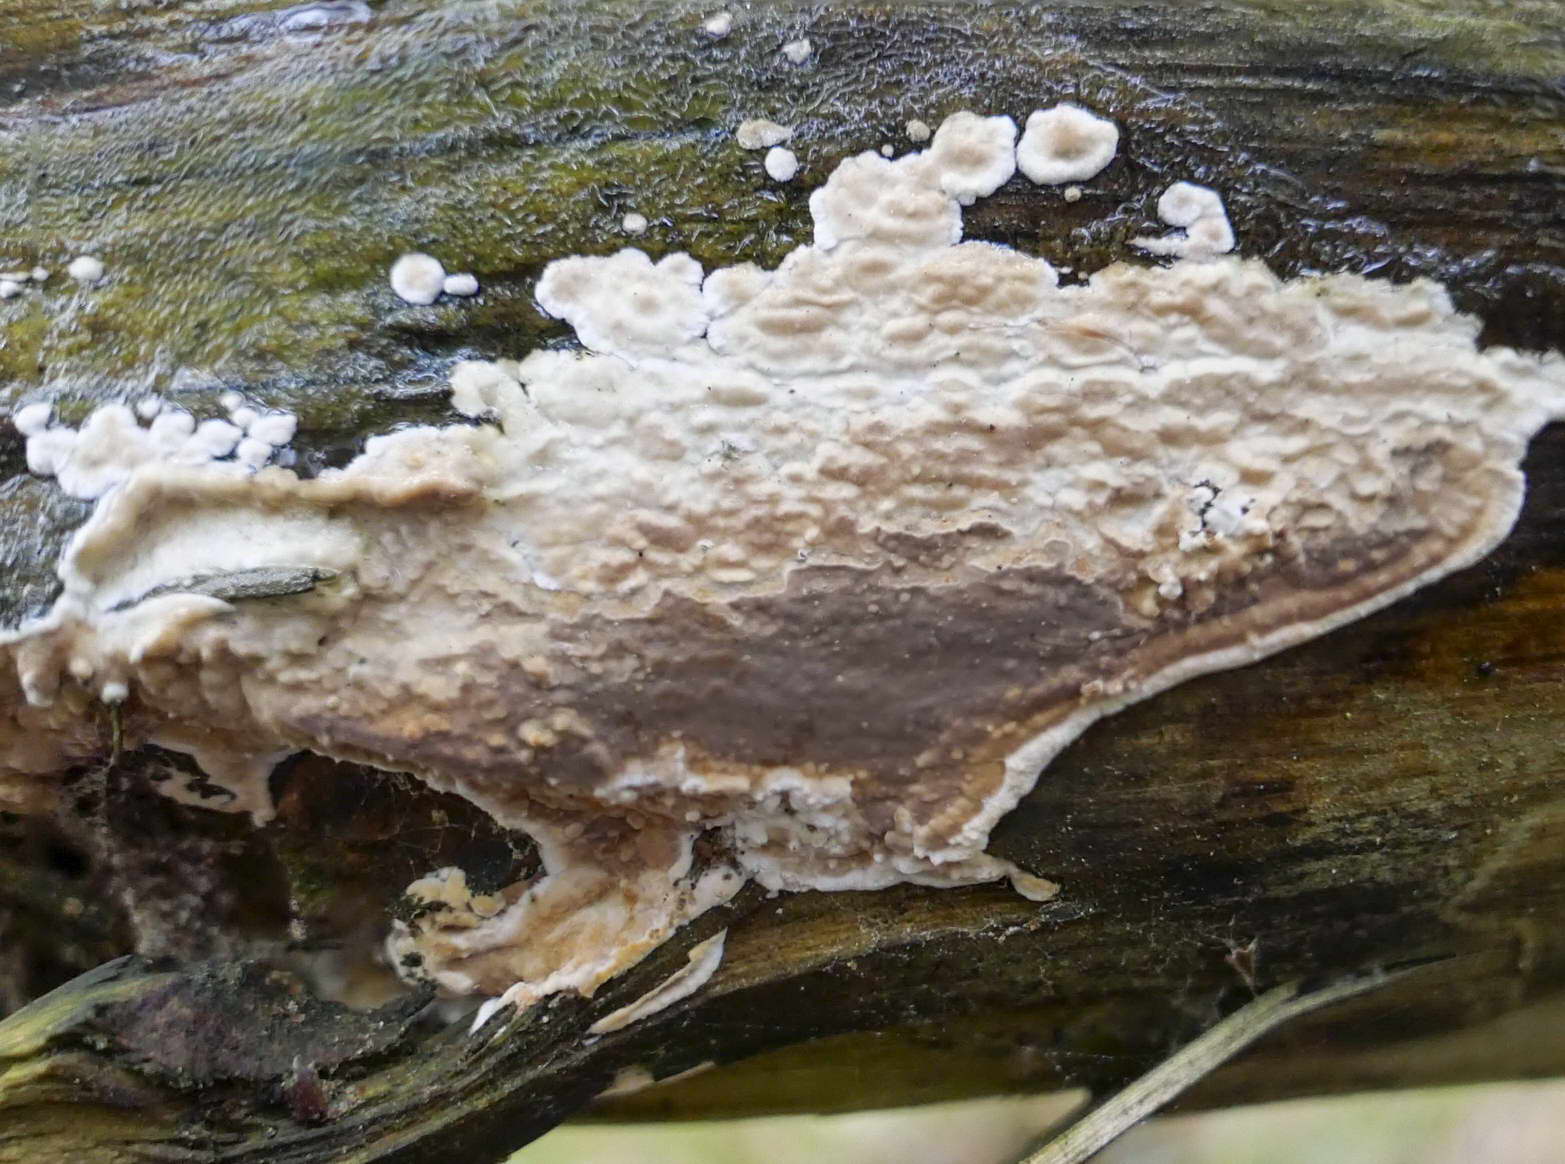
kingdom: Fungi
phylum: Basidiomycota
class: Agaricomycetes
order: Polyporales
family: Dacryobolaceae
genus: Dacryobolus
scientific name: Dacryobolus karstenii
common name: glat vulkanskorpe
